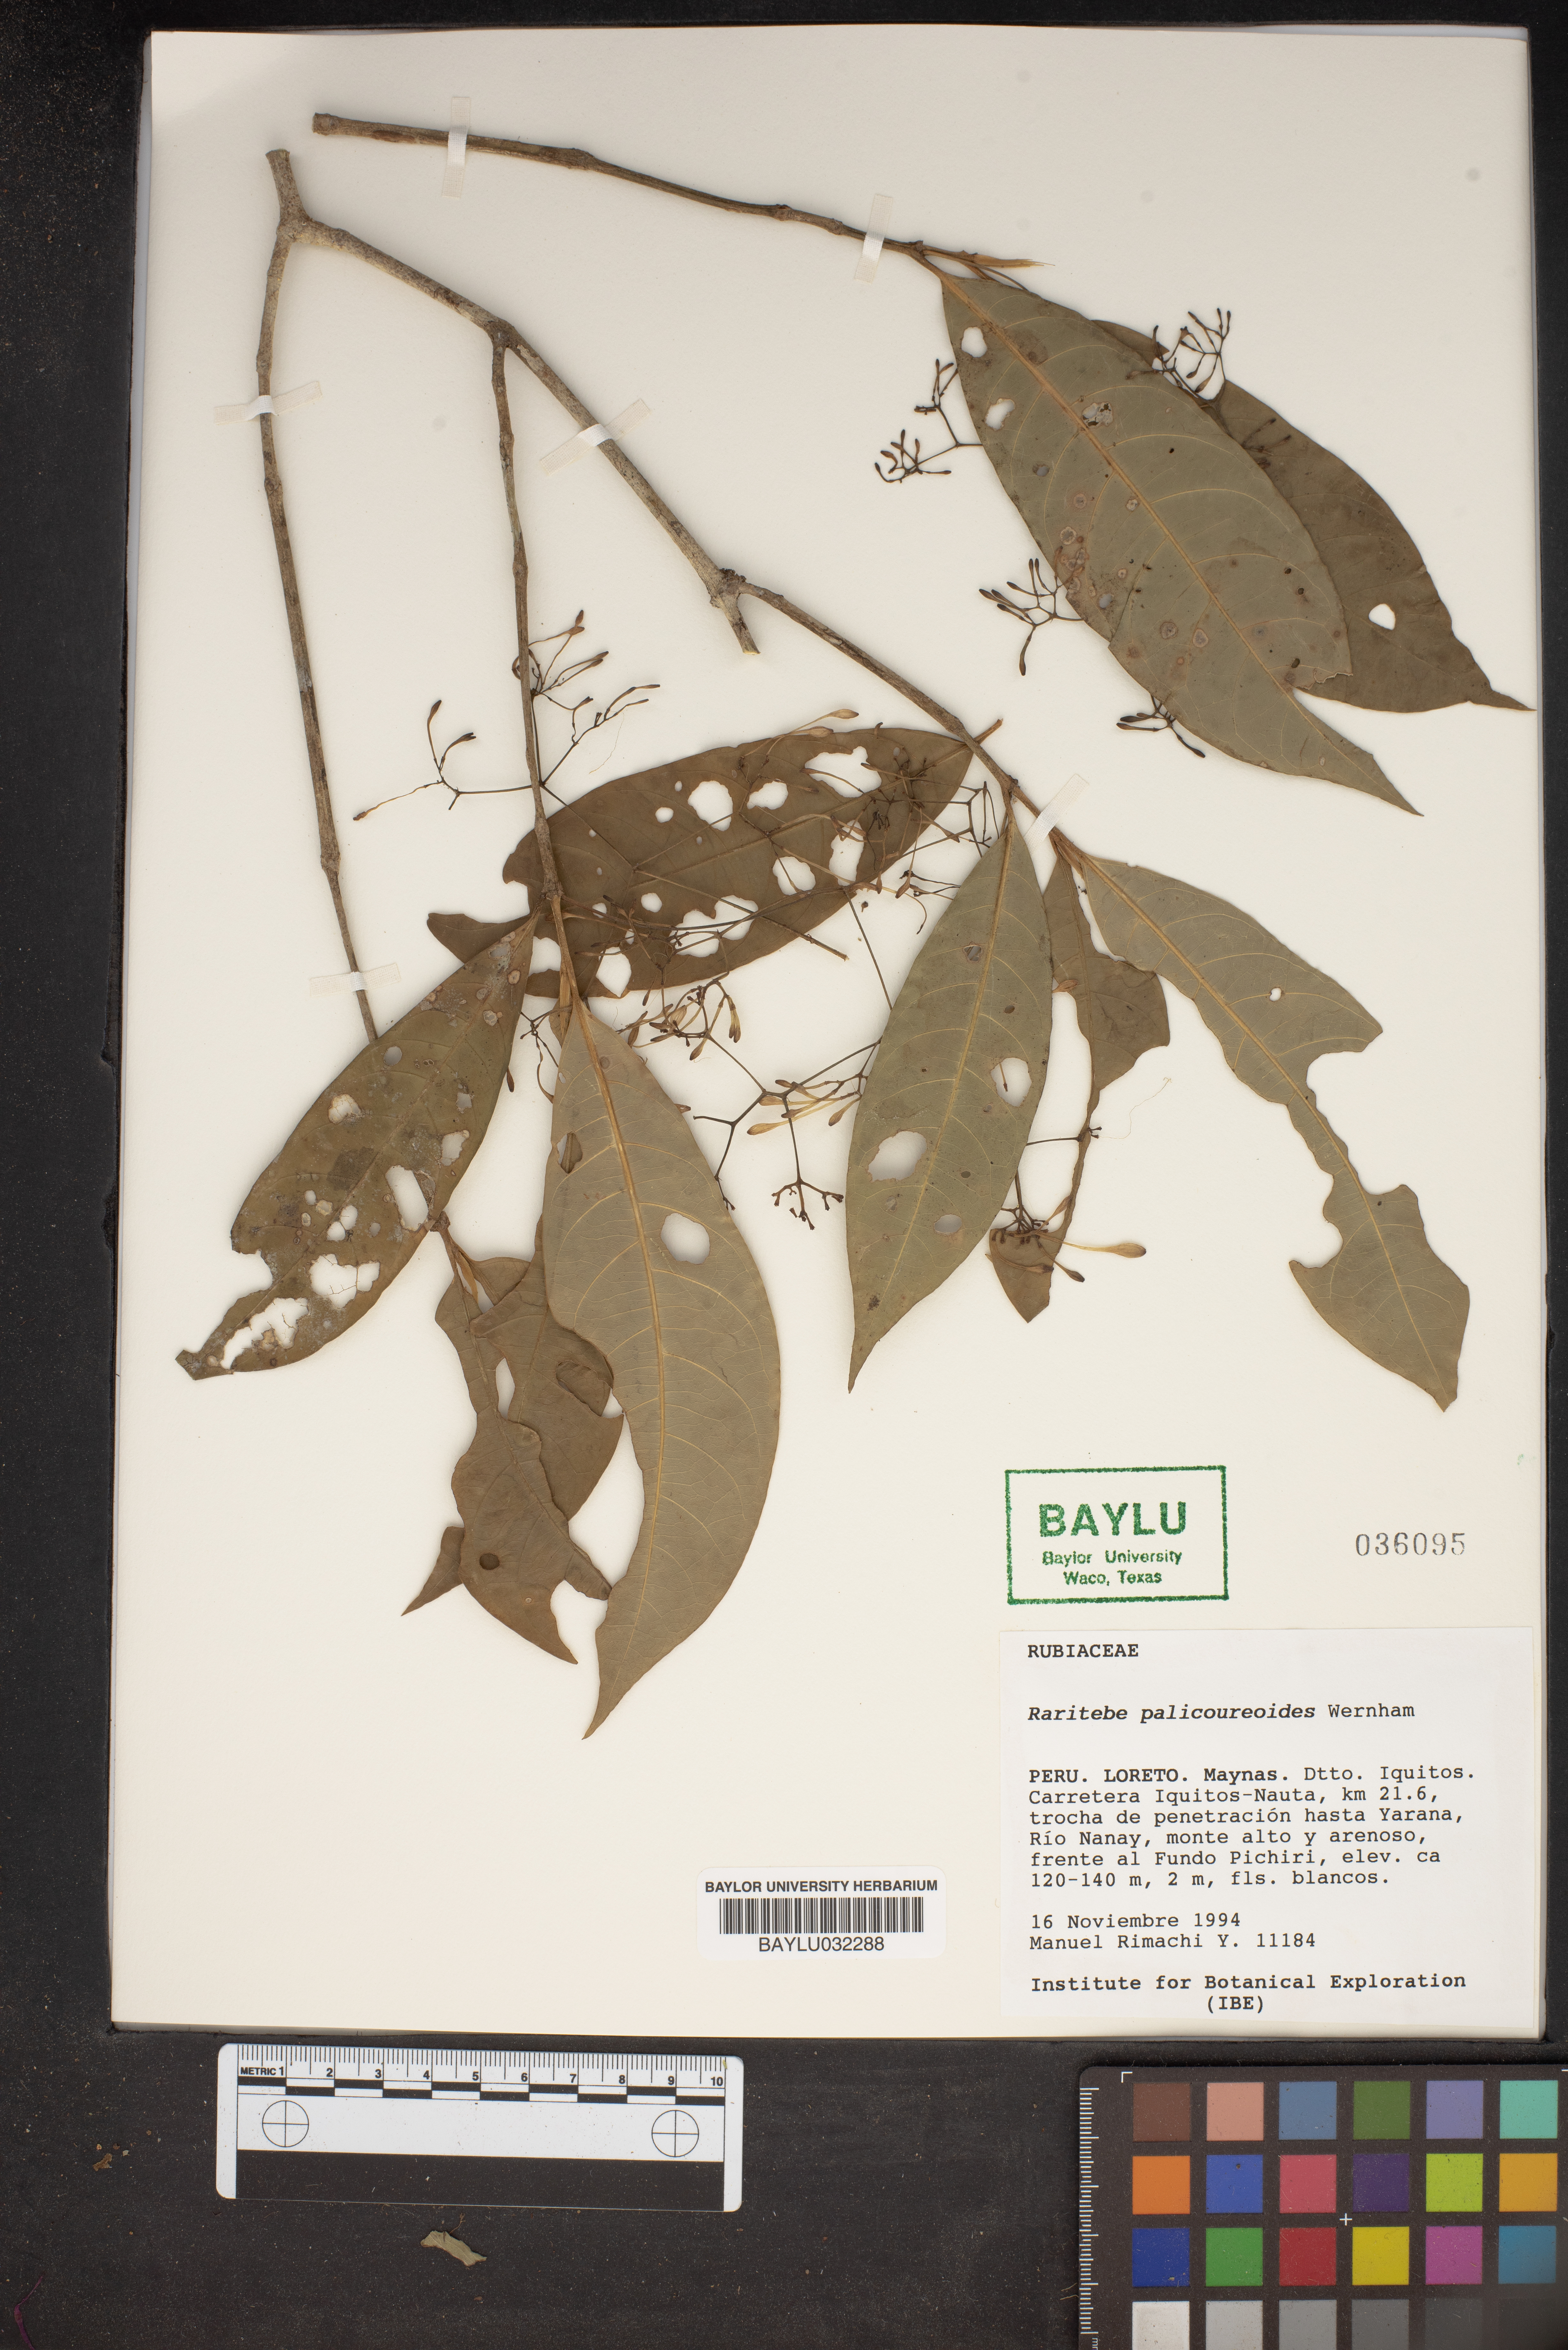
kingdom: Plantae
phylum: Tracheophyta
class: Magnoliopsida
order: Gentianales
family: Rubiaceae
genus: Raritebe
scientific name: Raritebe palicoureoides
